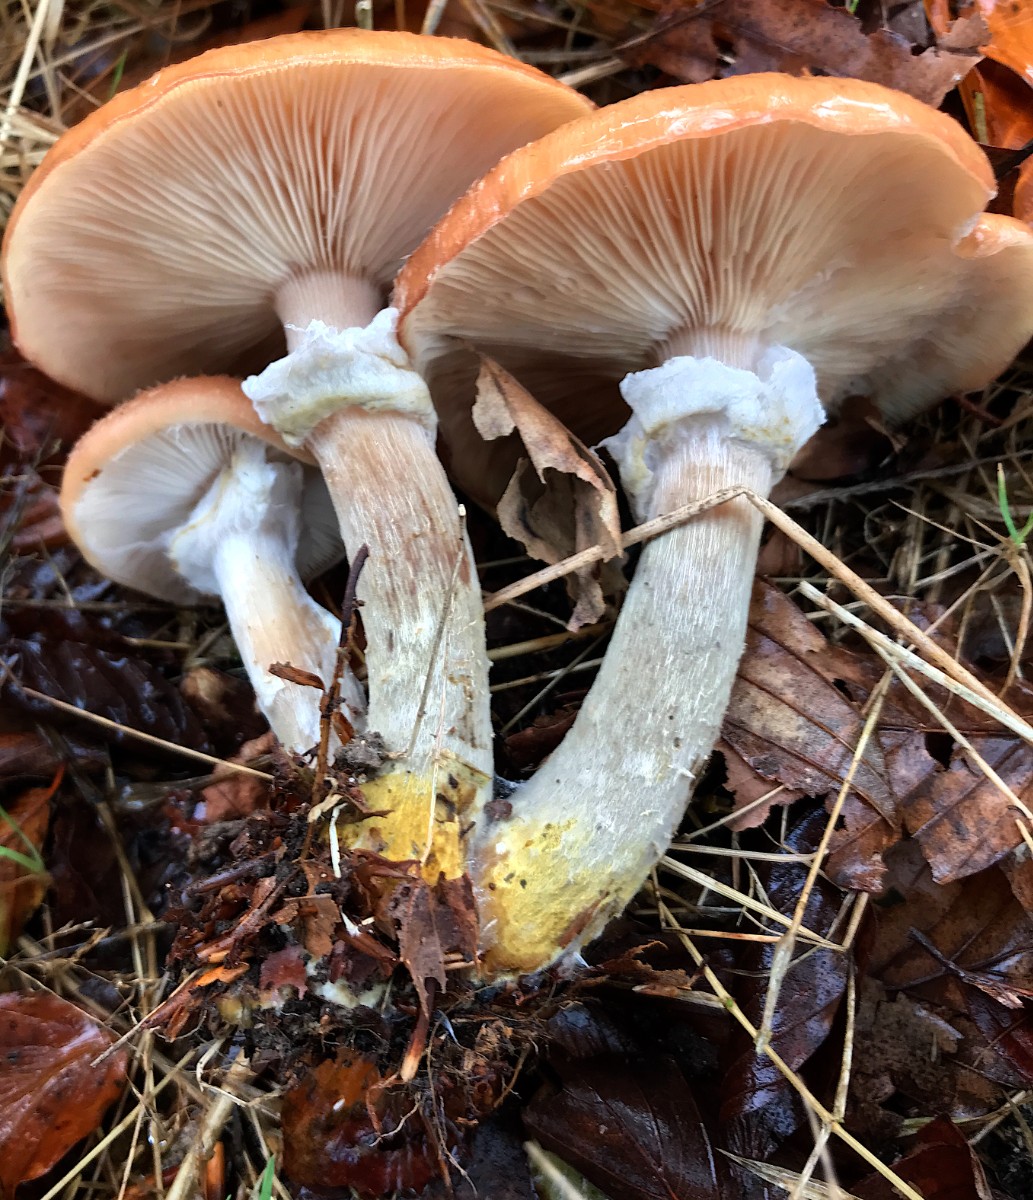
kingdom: Fungi
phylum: Basidiomycota
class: Agaricomycetes
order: Agaricales
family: Physalacriaceae
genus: Armillaria
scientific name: Armillaria lutea
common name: køllestokket honningsvamp
